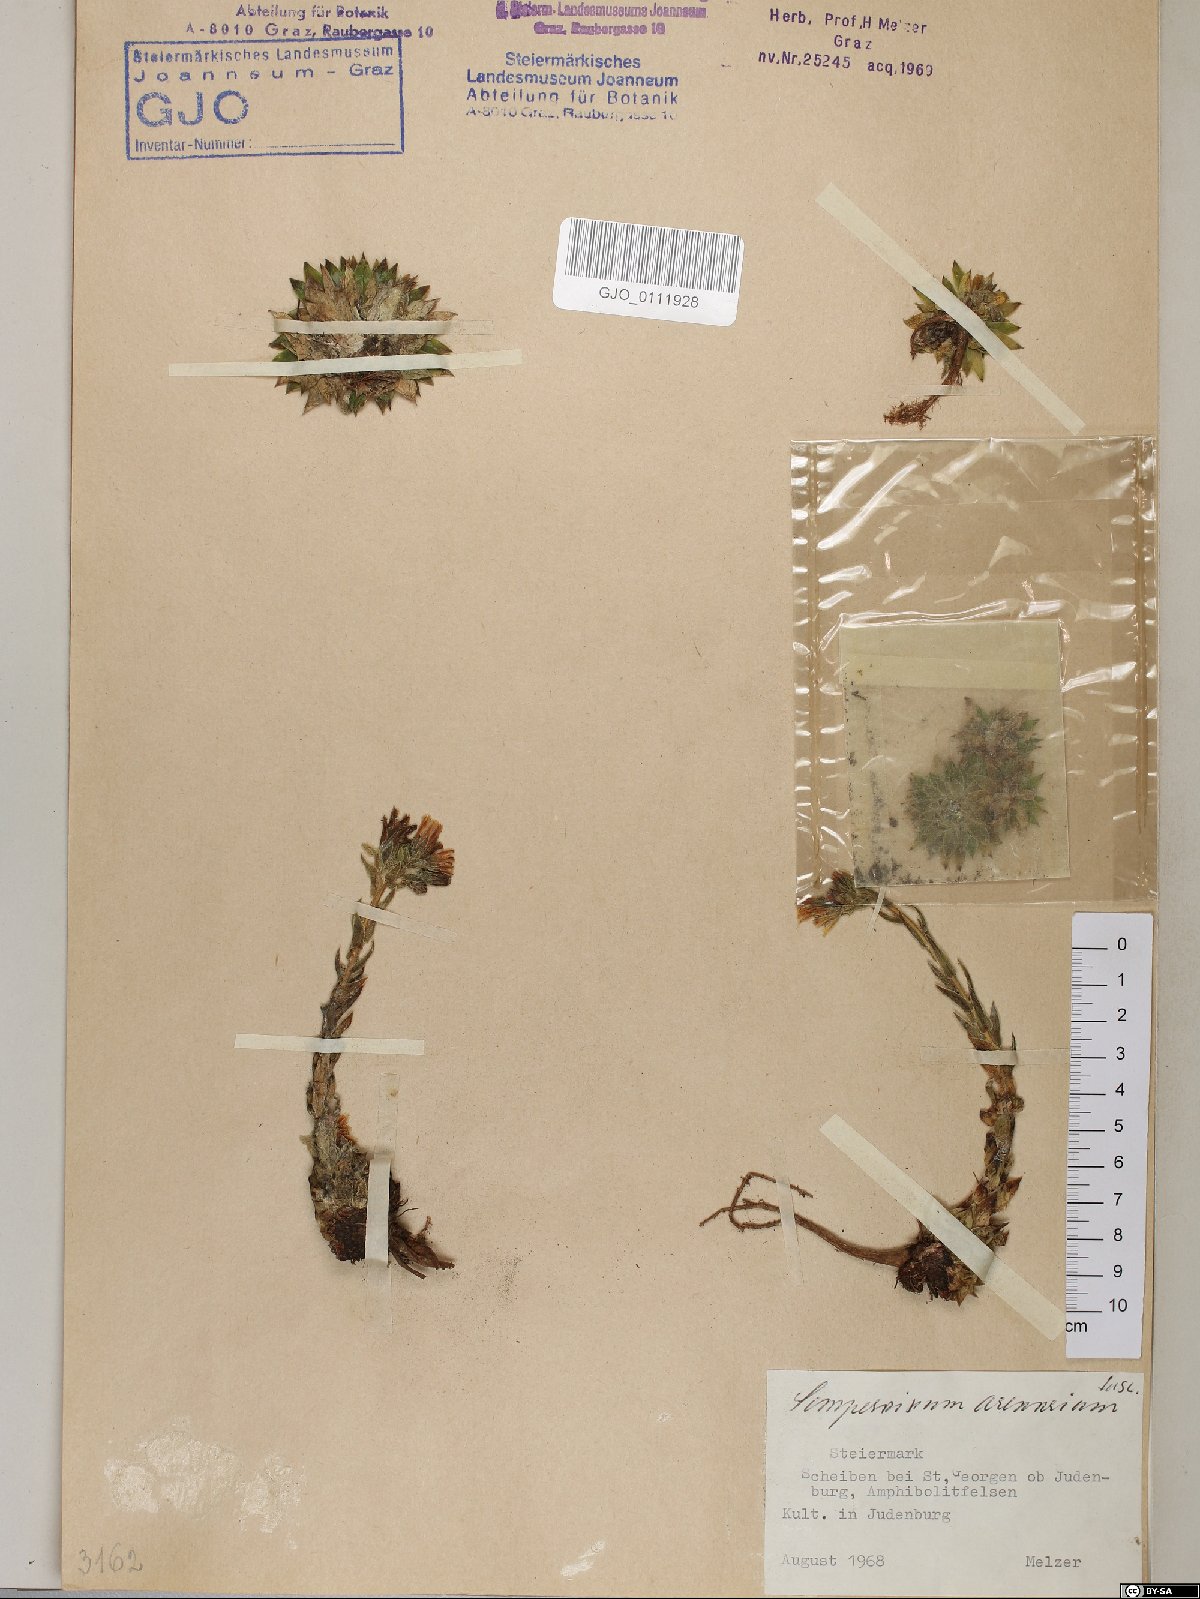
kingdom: Plantae
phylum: Tracheophyta
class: Magnoliopsida
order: Saxifragales
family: Crassulaceae
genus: Sempervivum
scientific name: Sempervivum globiferum
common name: Rolling hen-and-chicks
